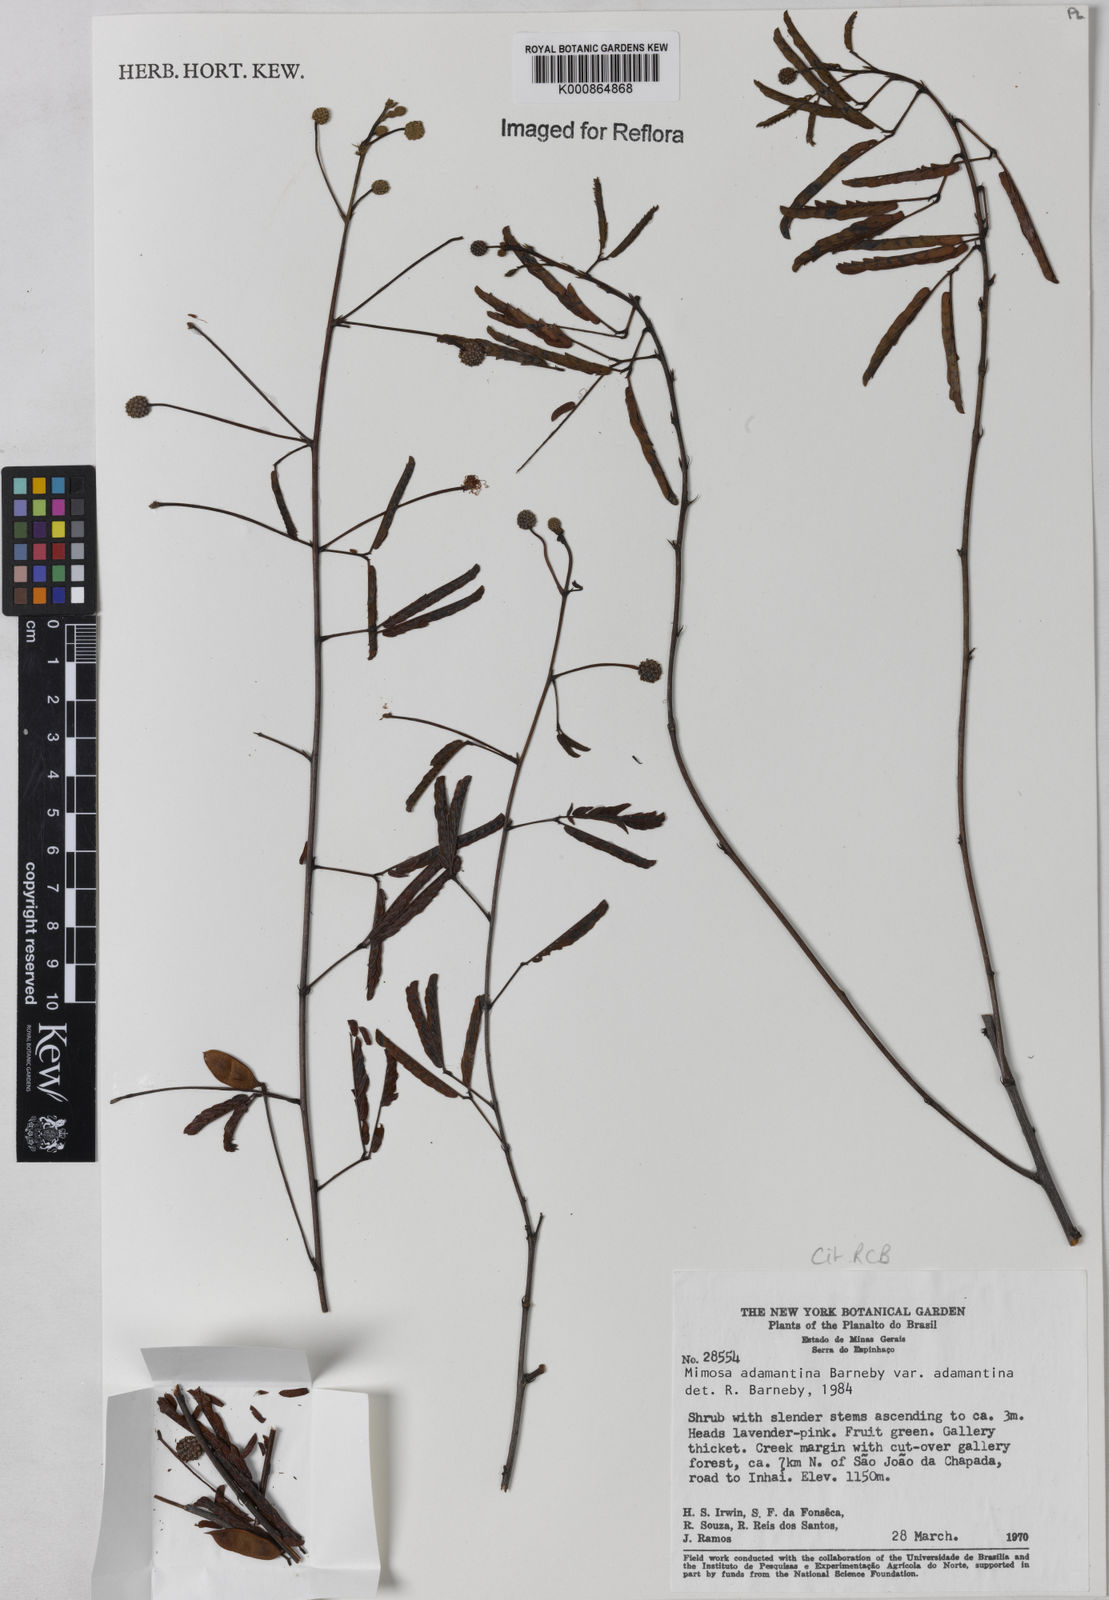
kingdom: Plantae
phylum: Tracheophyta
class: Magnoliopsida
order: Fabales
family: Fabaceae
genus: Mimosa
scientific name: Mimosa
